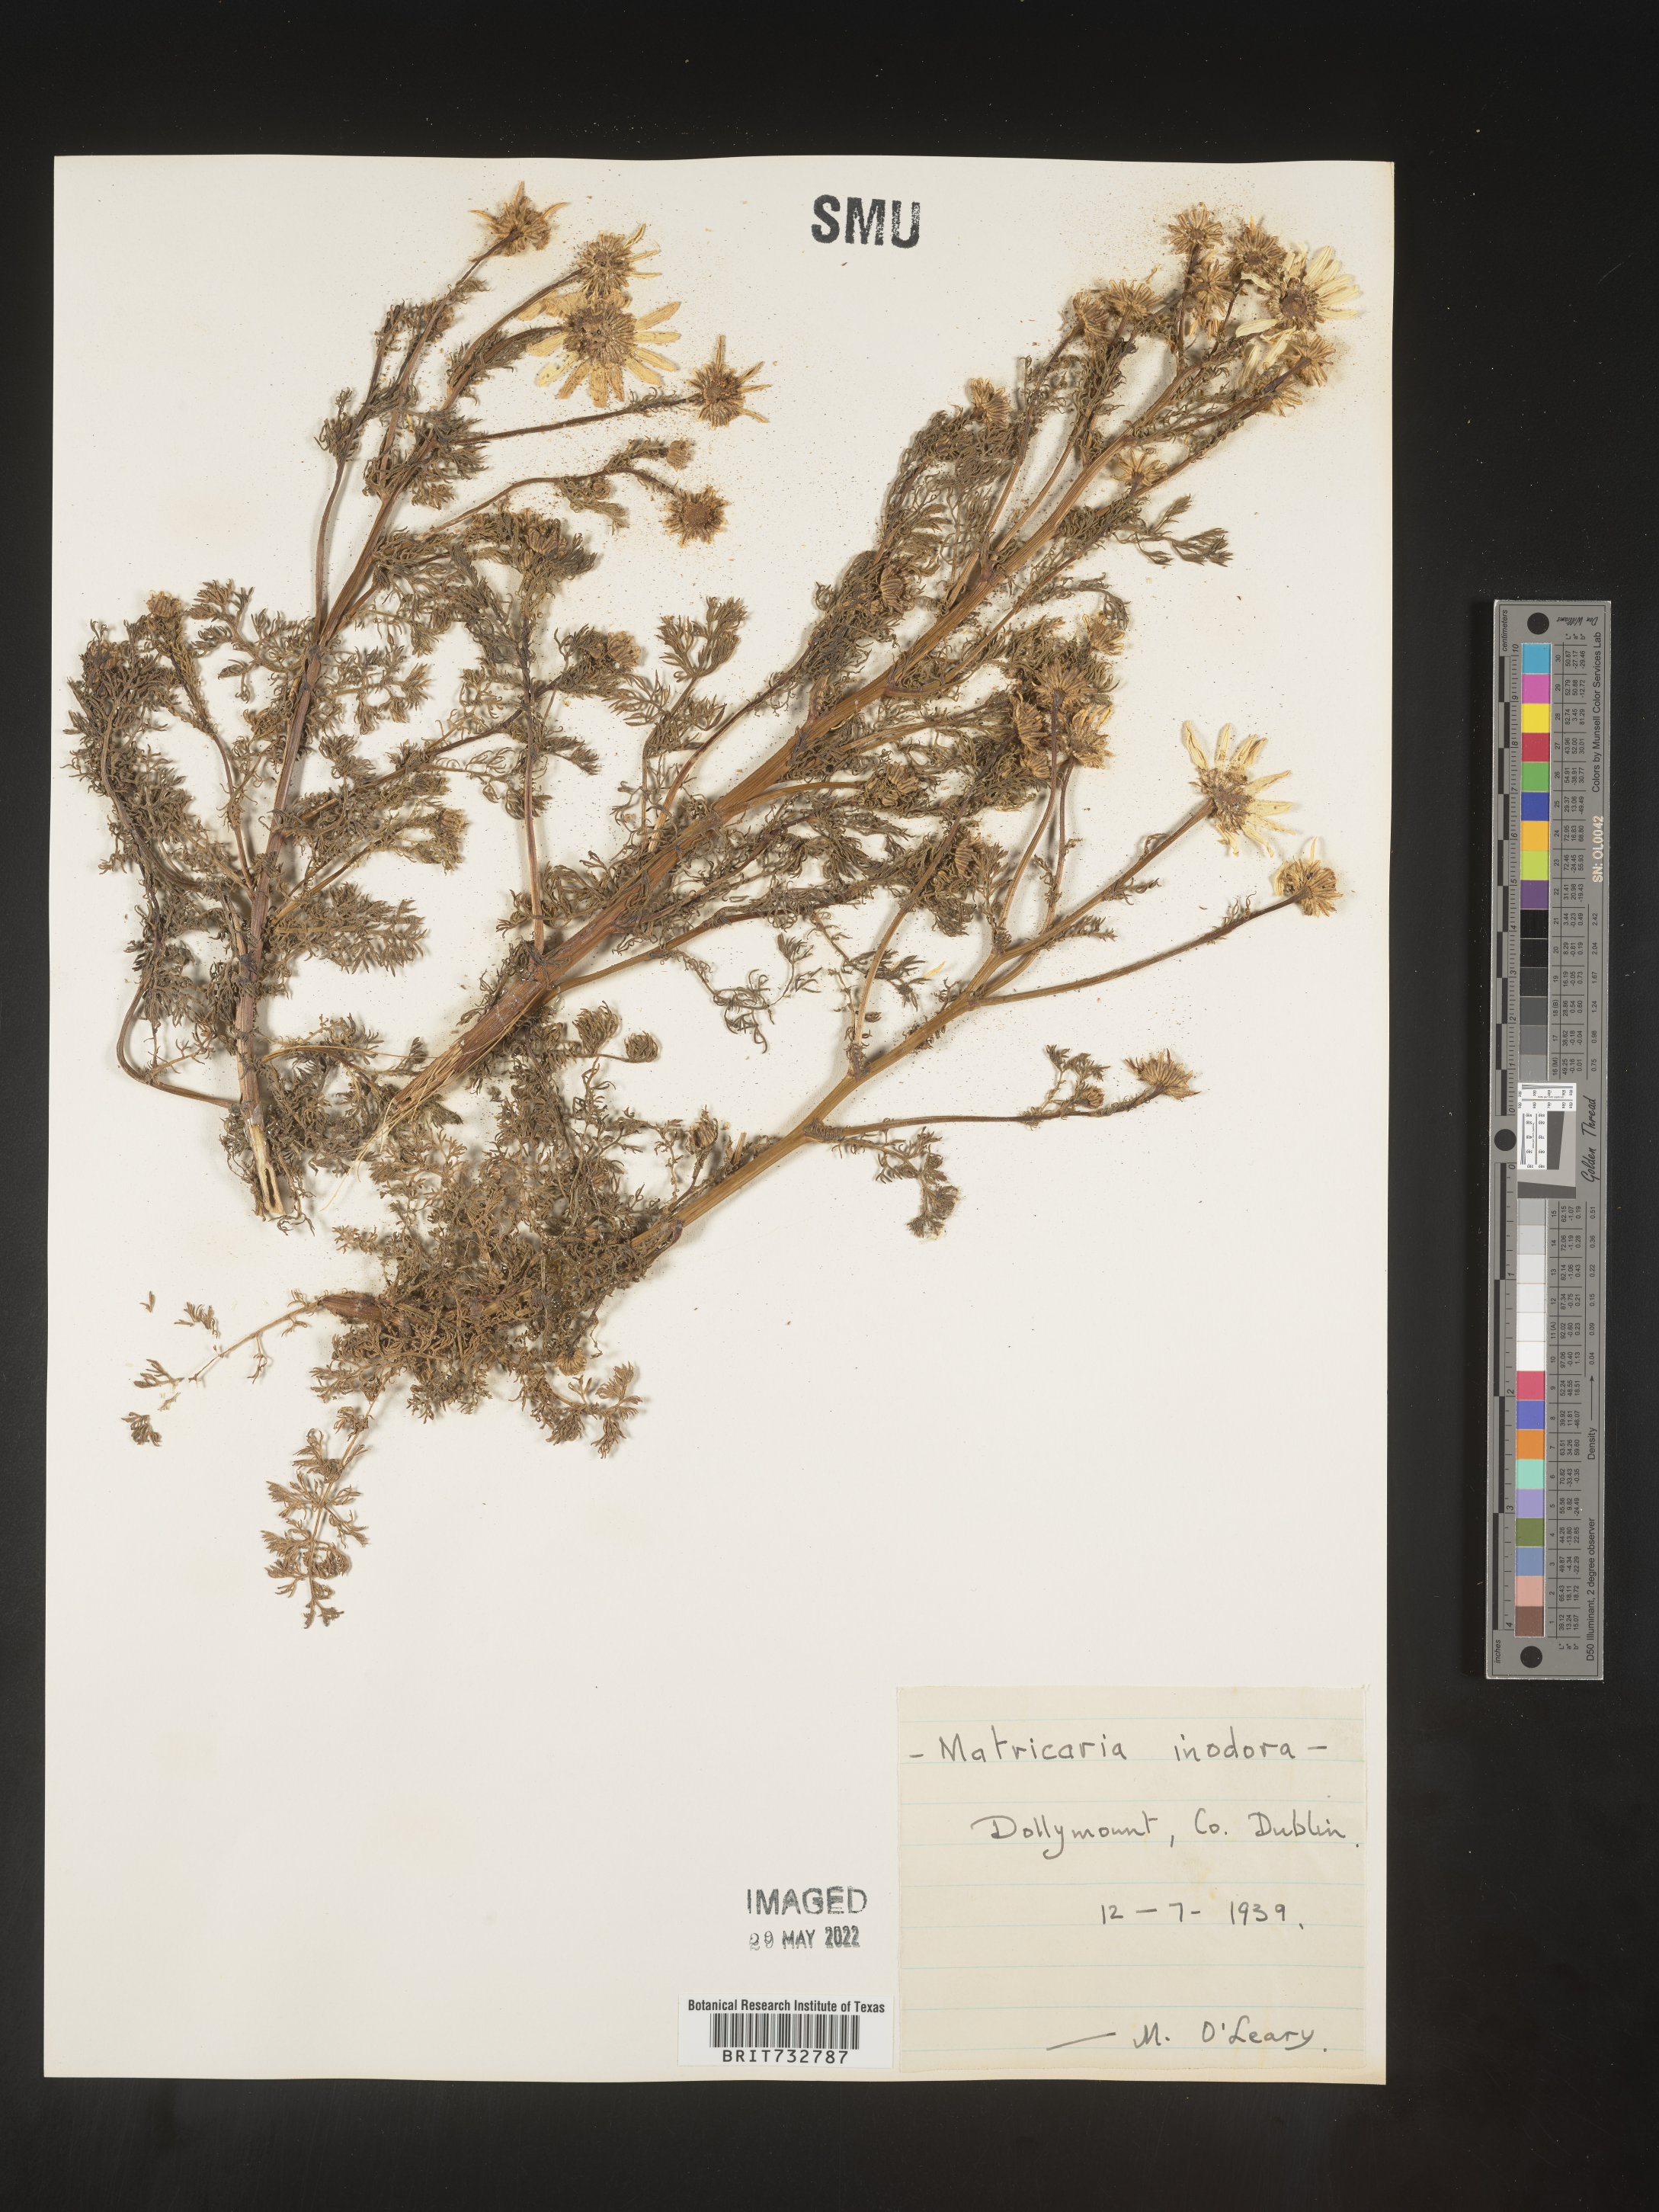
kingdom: Plantae
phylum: Tracheophyta
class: Magnoliopsida
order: Asterales
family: Asteraceae
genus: Matricaria
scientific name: Matricaria
